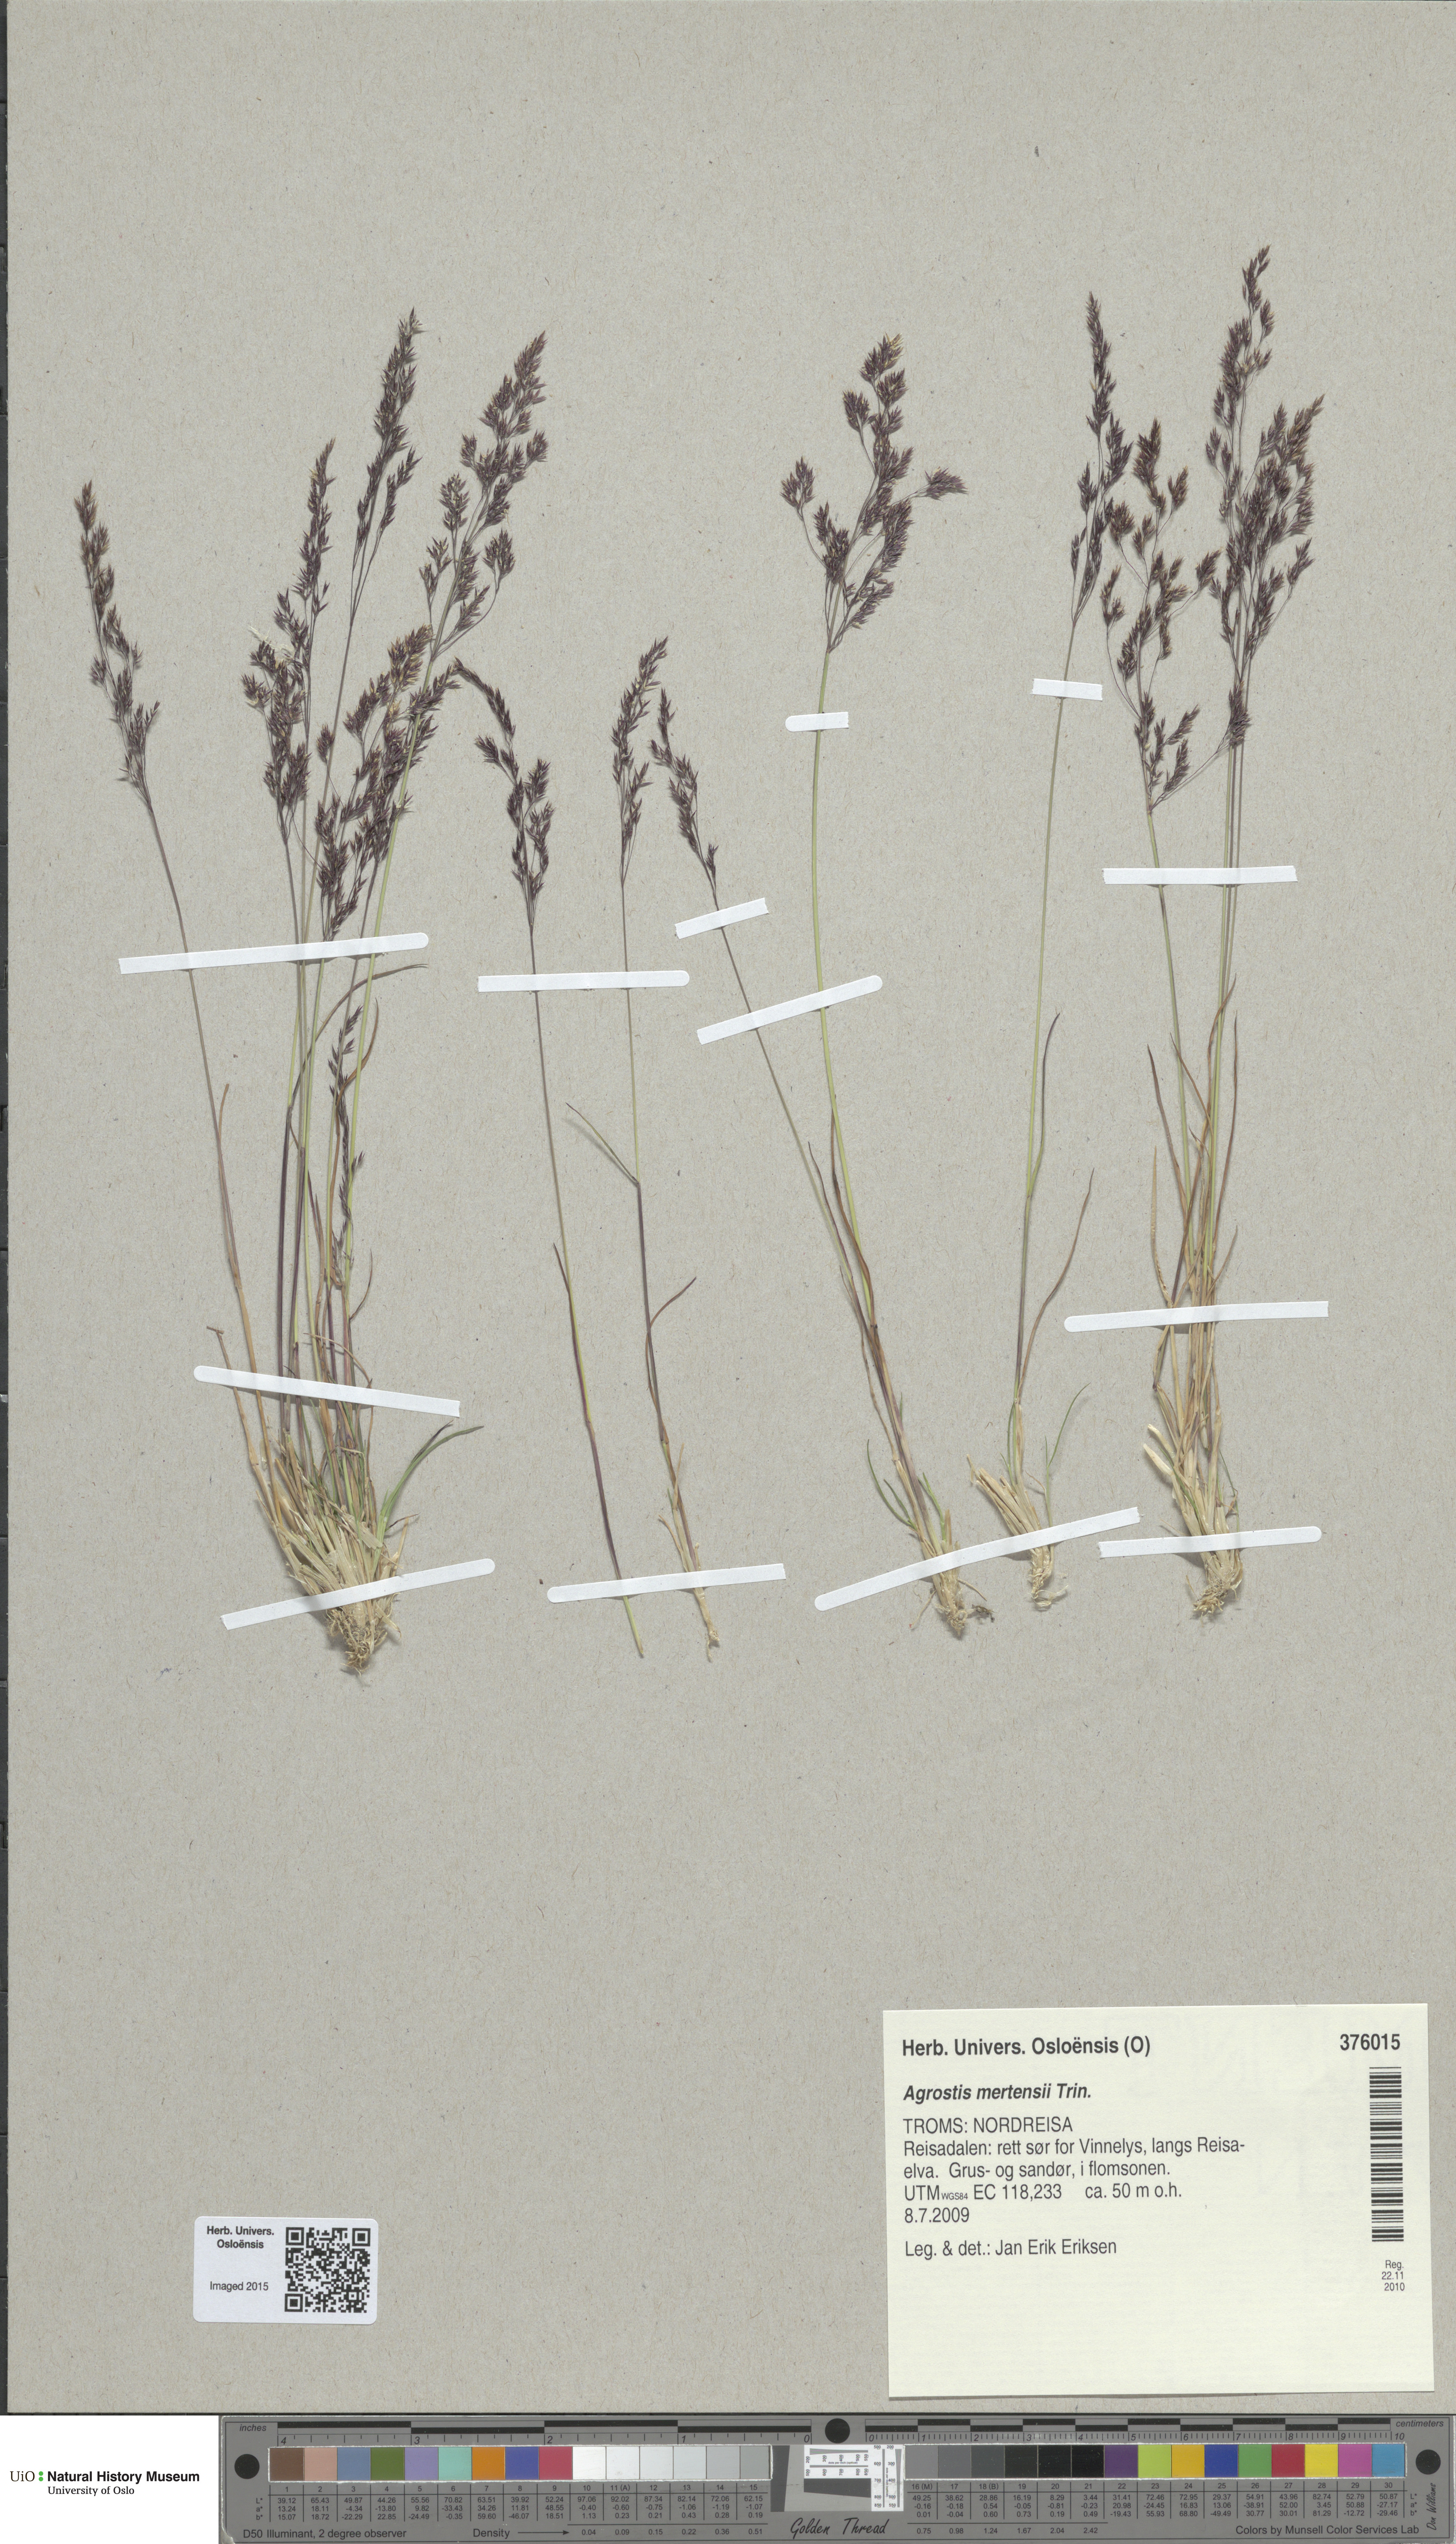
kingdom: Plantae
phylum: Tracheophyta
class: Liliopsida
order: Poales
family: Poaceae
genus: Agrostis
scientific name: Agrostis mertensii
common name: Northern bent
